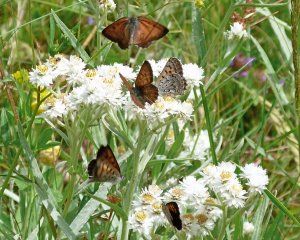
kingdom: Animalia
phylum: Arthropoda
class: Insecta
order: Lepidoptera
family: Lycaenidae
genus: Lycaena
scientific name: Lycaena mariposa
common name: Mariposa Copper
